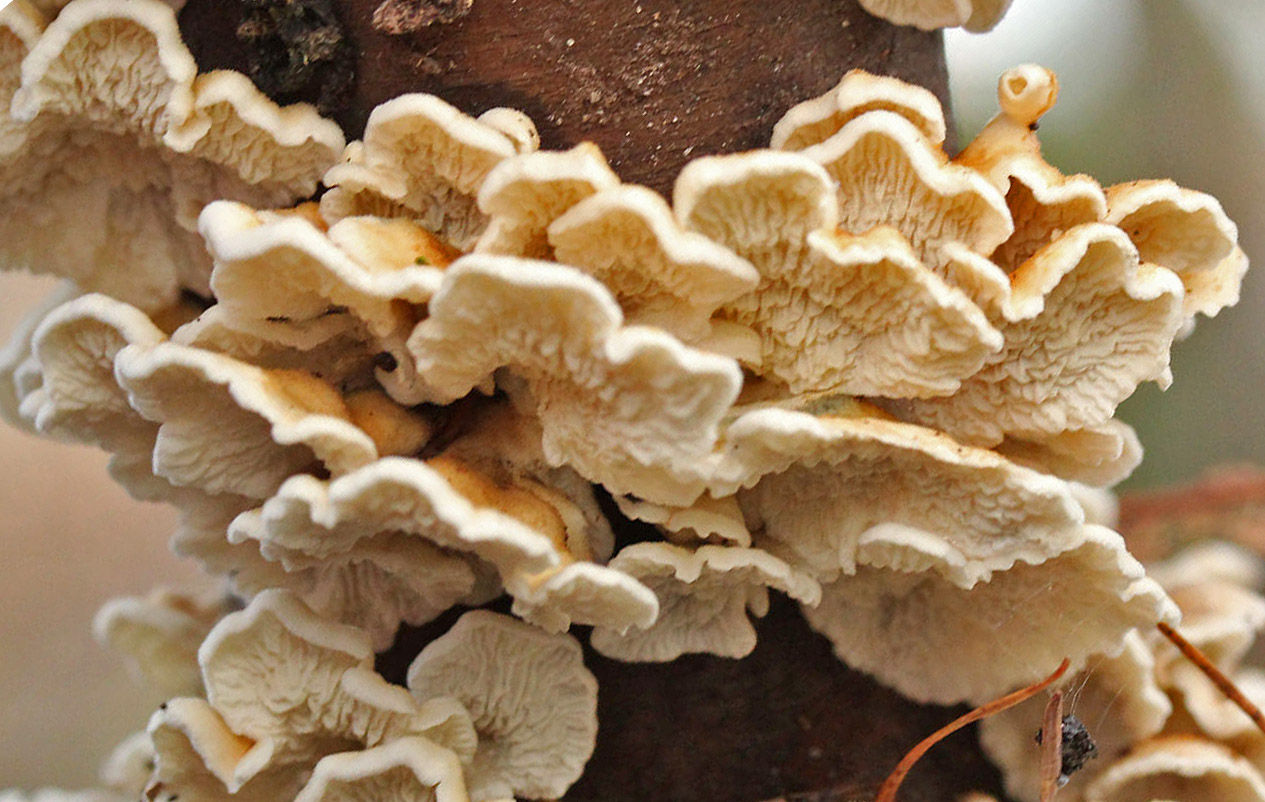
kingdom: Fungi
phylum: Basidiomycota
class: Agaricomycetes
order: Amylocorticiales
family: Amylocorticiaceae
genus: Plicaturopsis
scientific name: Plicaturopsis crispa
